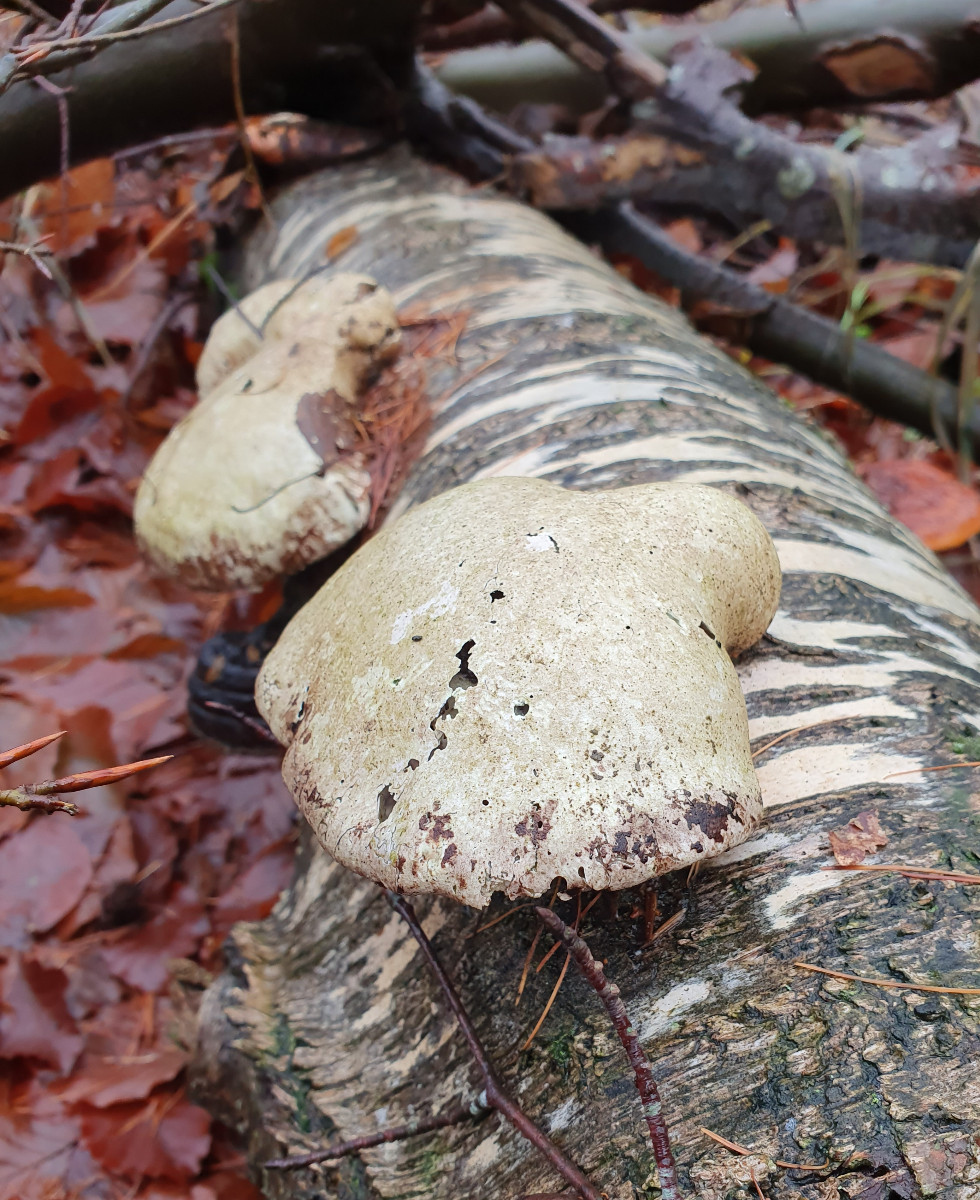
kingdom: Fungi
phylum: Basidiomycota
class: Agaricomycetes
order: Polyporales
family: Fomitopsidaceae
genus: Fomitopsis
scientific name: Fomitopsis betulina
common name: birkeporesvamp
